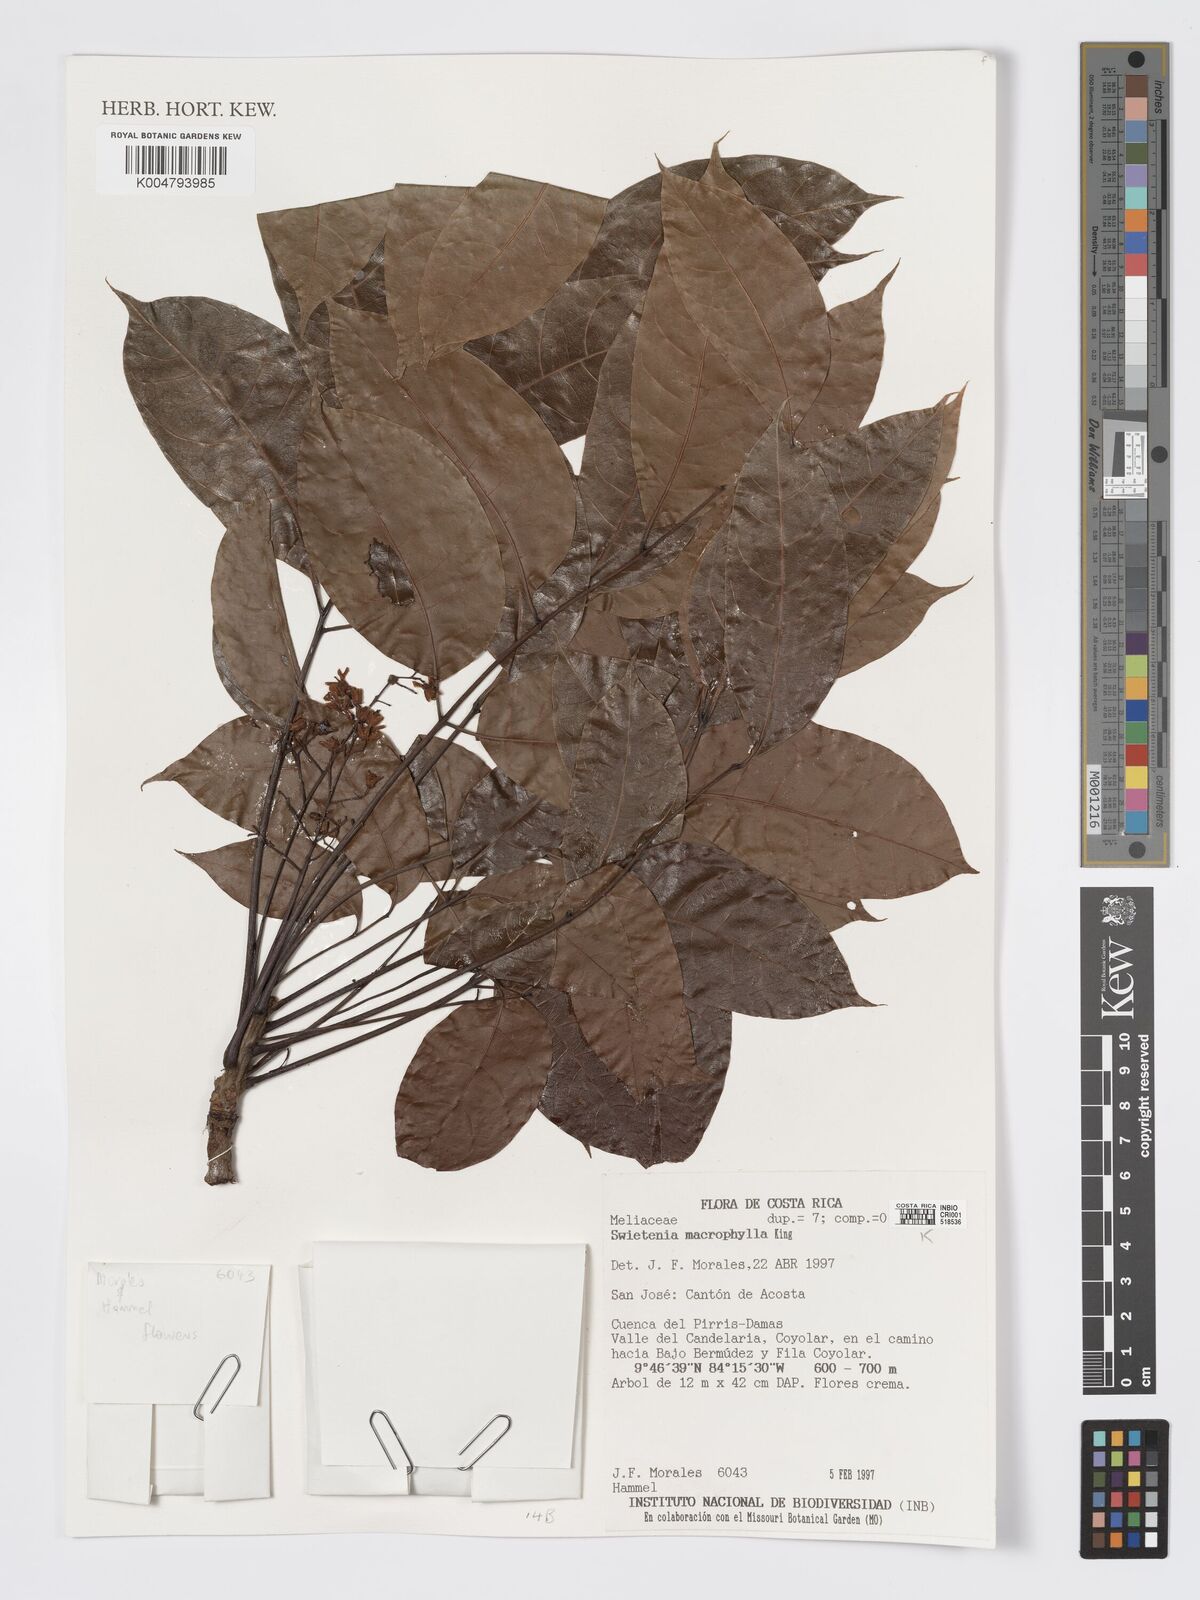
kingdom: Plantae
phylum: Tracheophyta
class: Magnoliopsida
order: Sapindales
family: Meliaceae
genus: Swietenia
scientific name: Swietenia macrophylla
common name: Honduras mahogany
